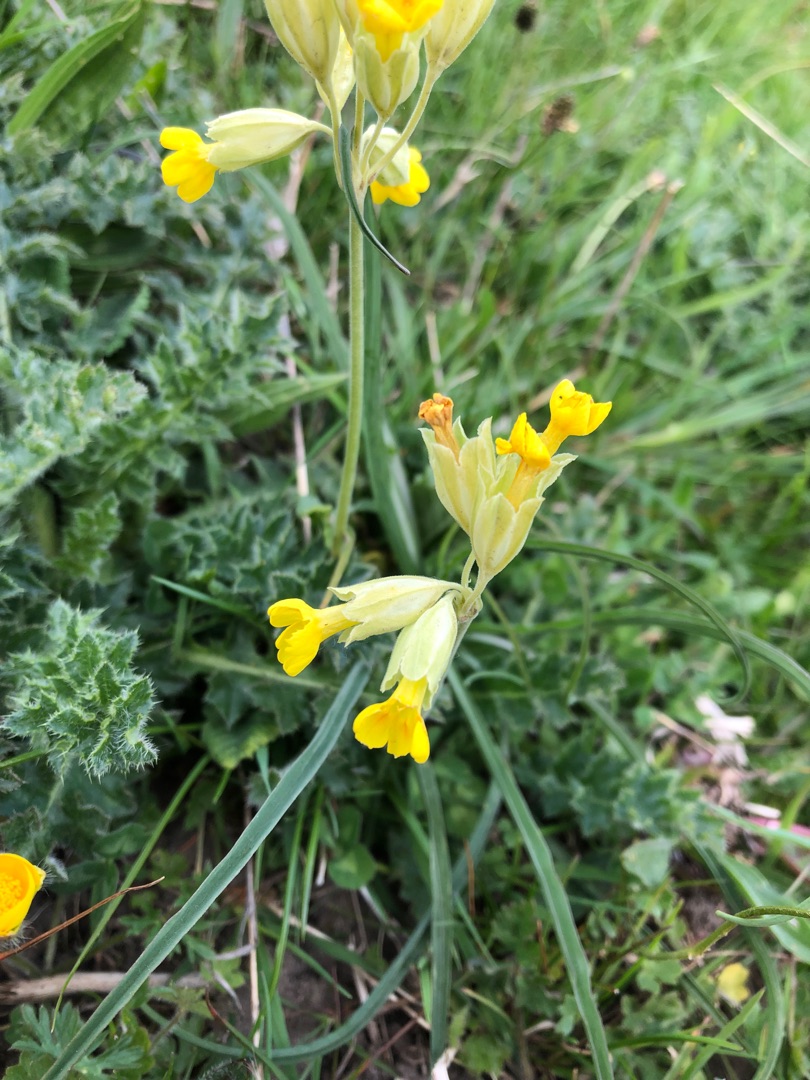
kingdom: Plantae
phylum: Tracheophyta
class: Magnoliopsida
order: Ericales
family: Primulaceae
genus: Primula
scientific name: Primula veris
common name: Hulkravet kodriver
